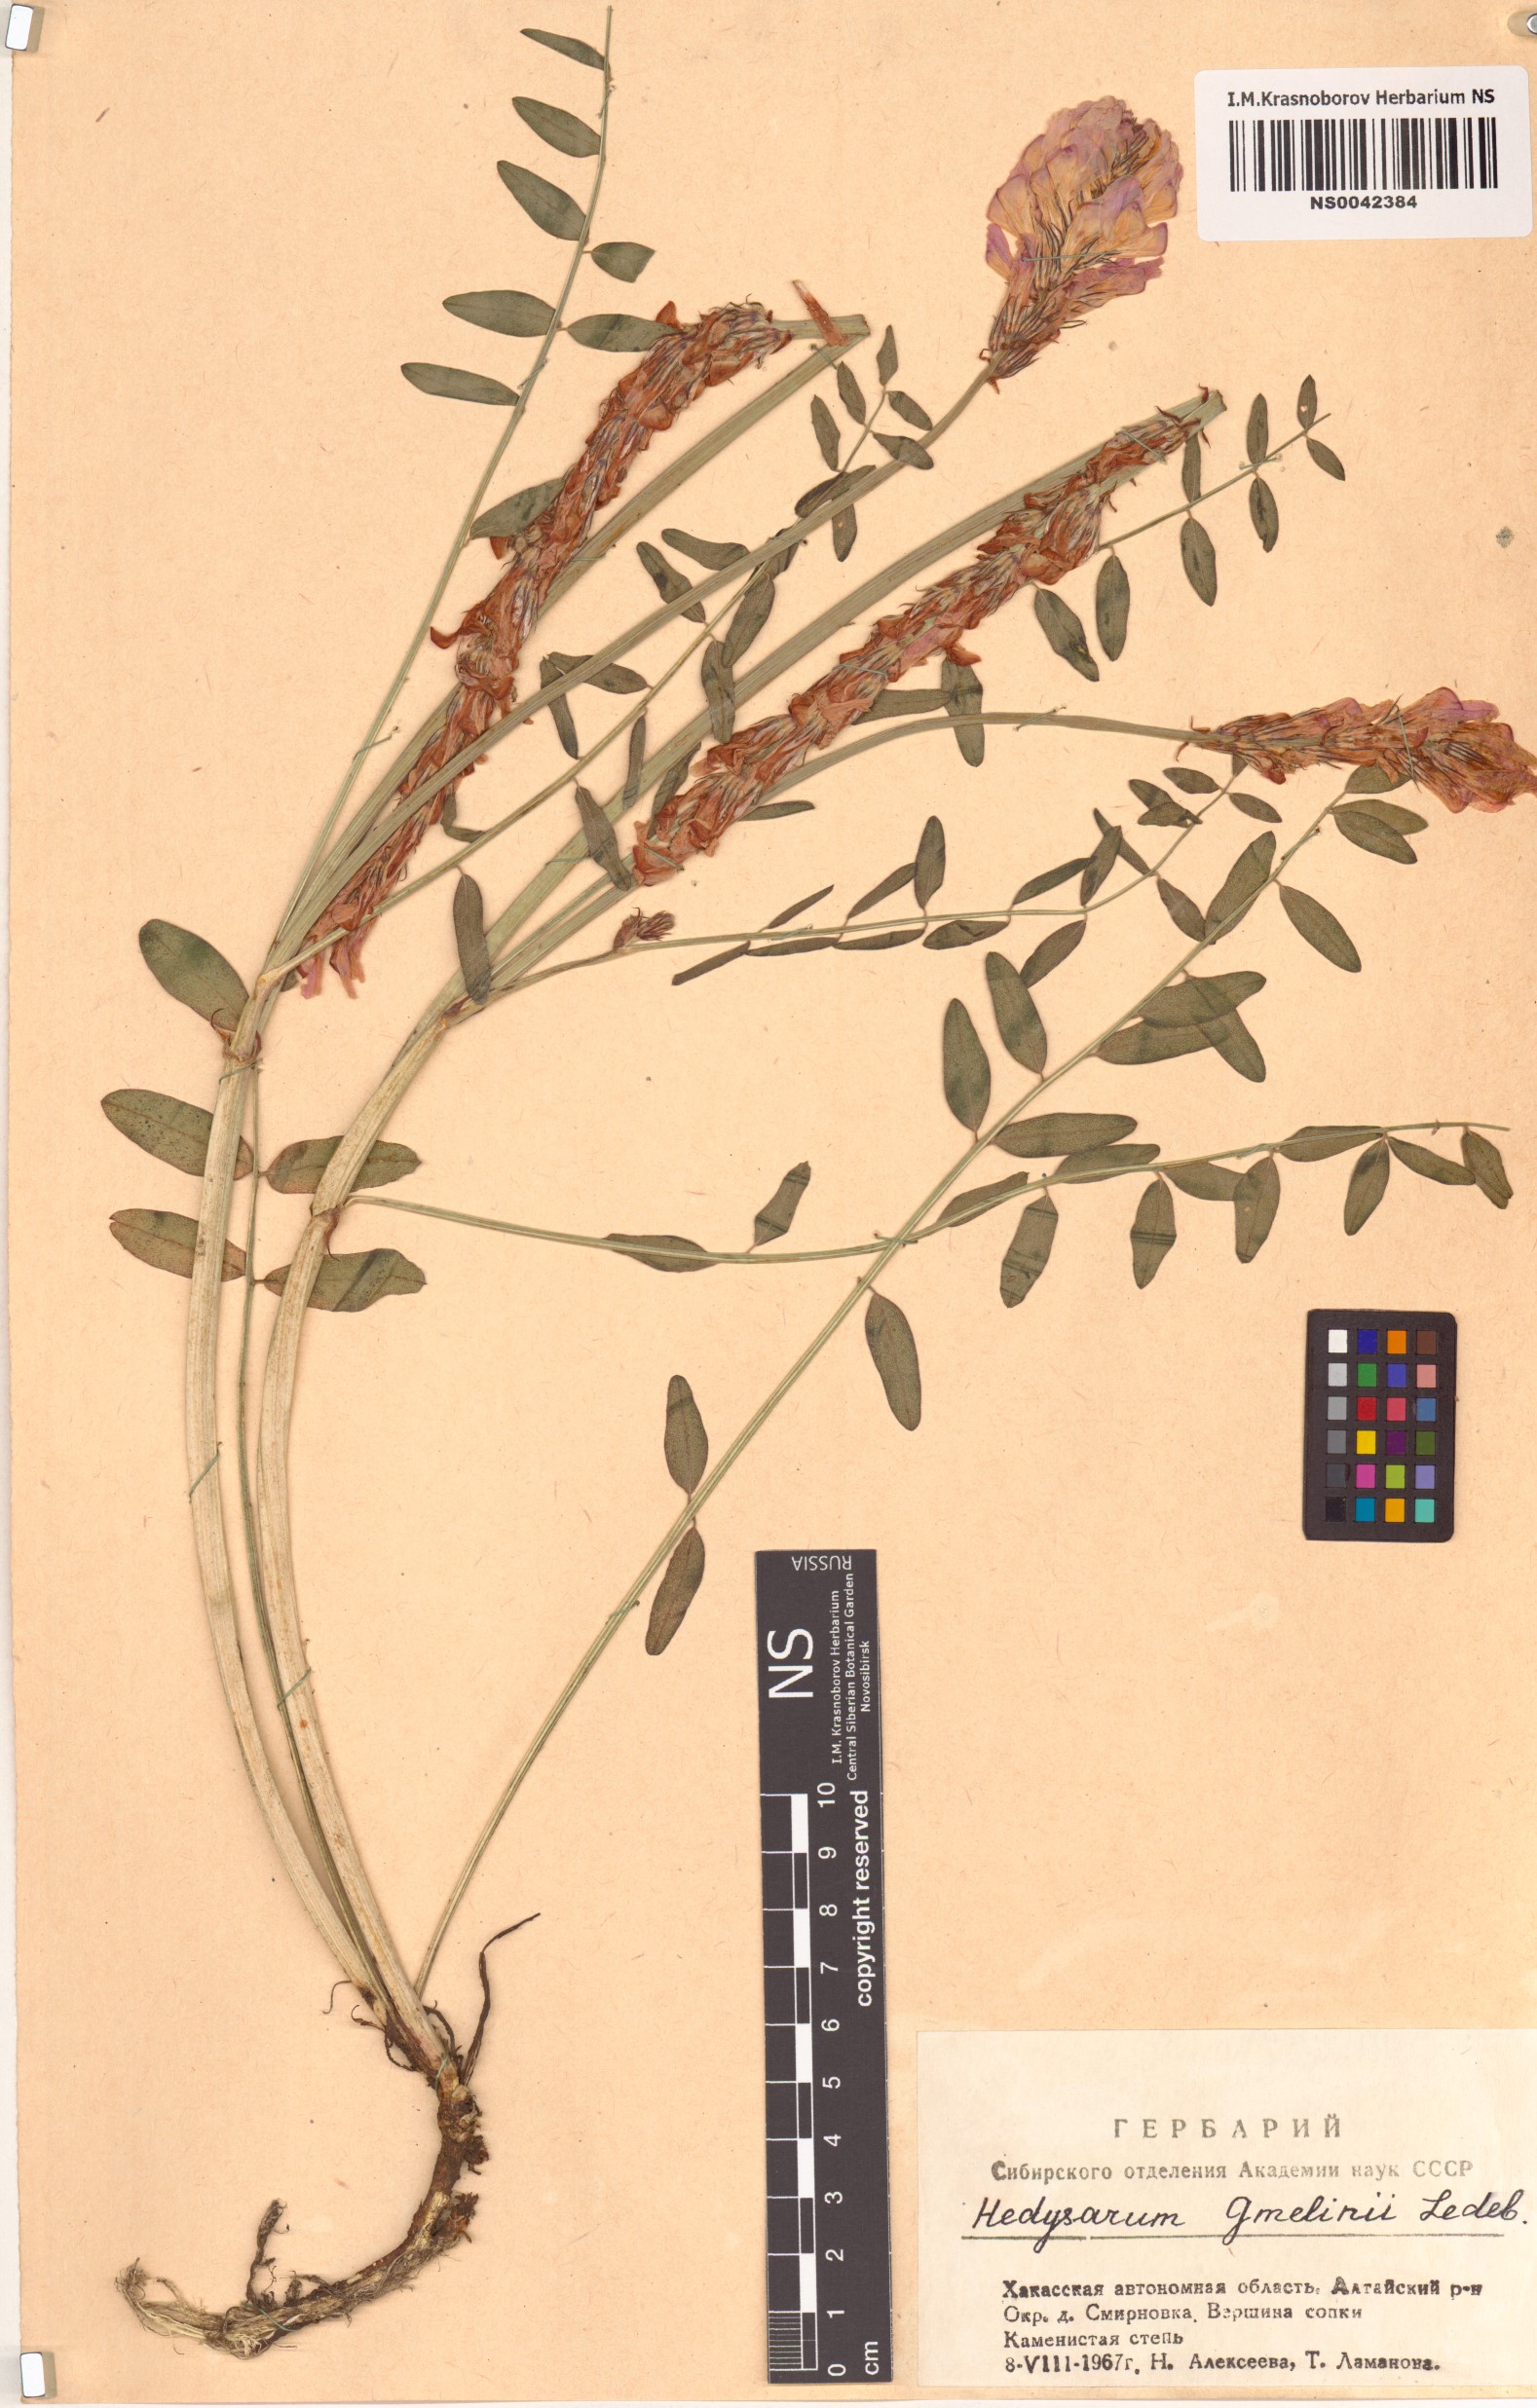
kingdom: Plantae
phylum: Tracheophyta
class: Magnoliopsida
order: Fabales
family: Fabaceae
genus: Hedysarum
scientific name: Hedysarum gmelinii
